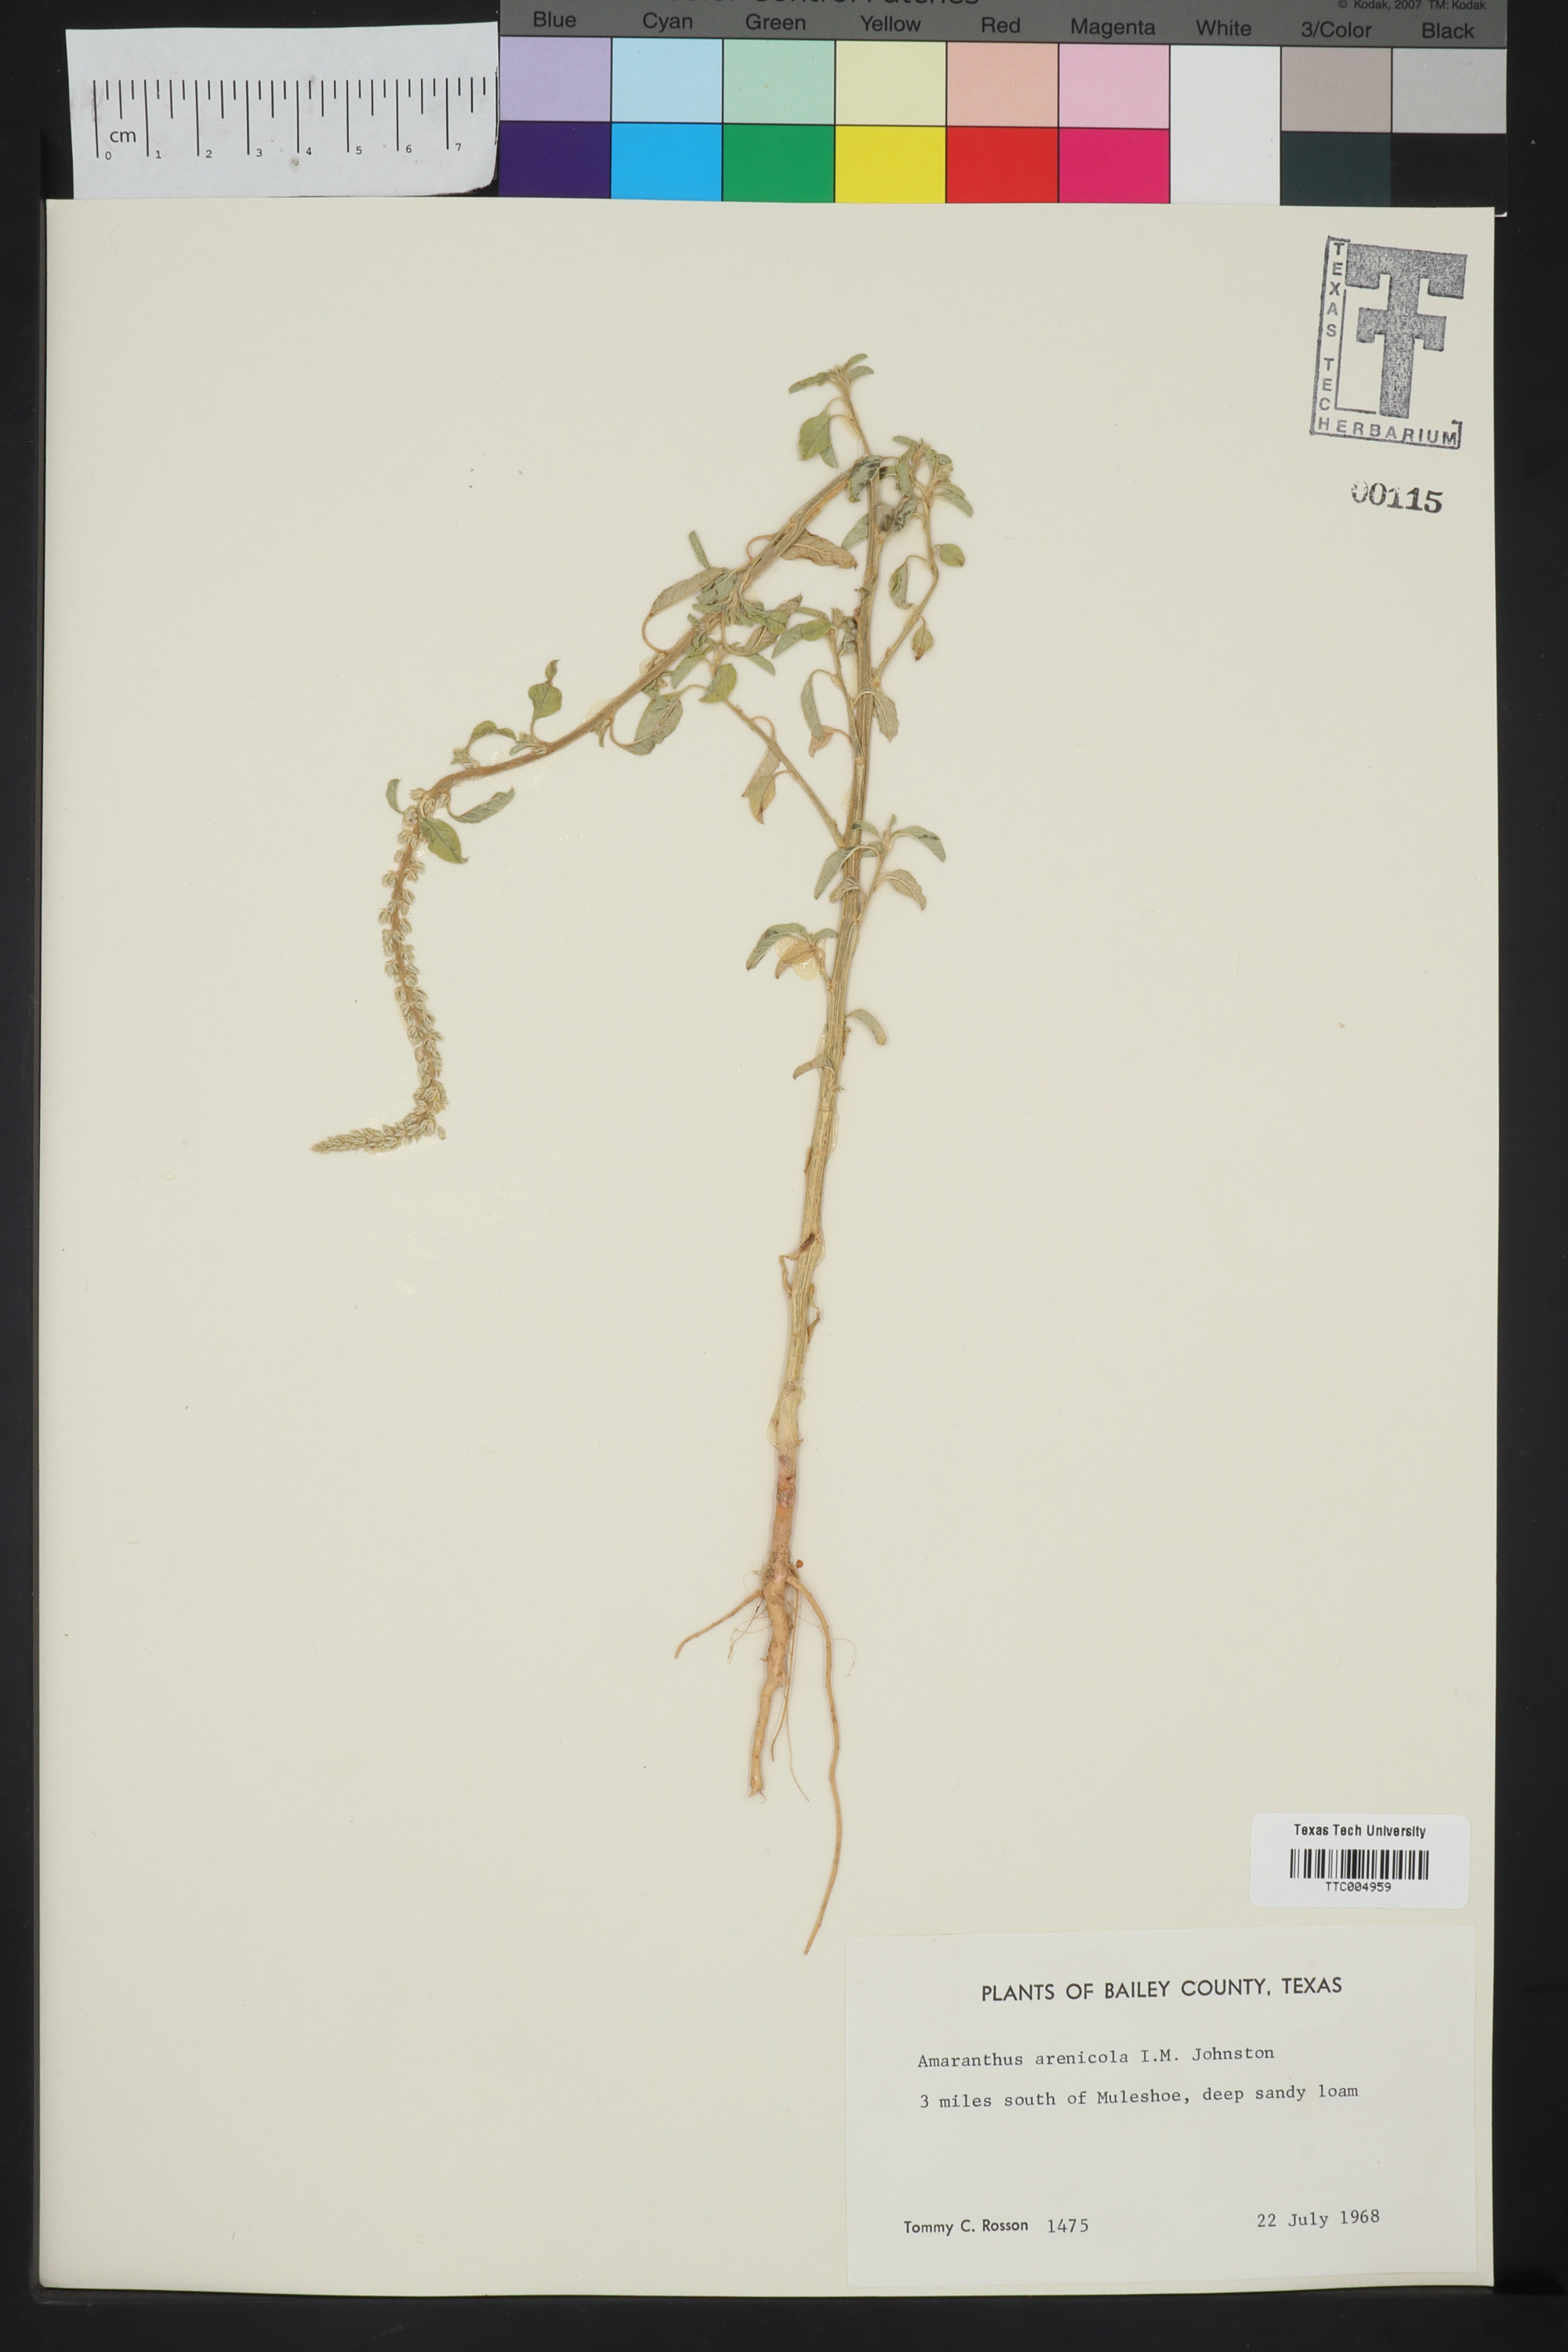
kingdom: Plantae
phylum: Tracheophyta
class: Magnoliopsida
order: Caryophyllales
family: Amaranthaceae
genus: Amaranthus
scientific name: Amaranthus arenicola
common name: Sandhills amaranth
